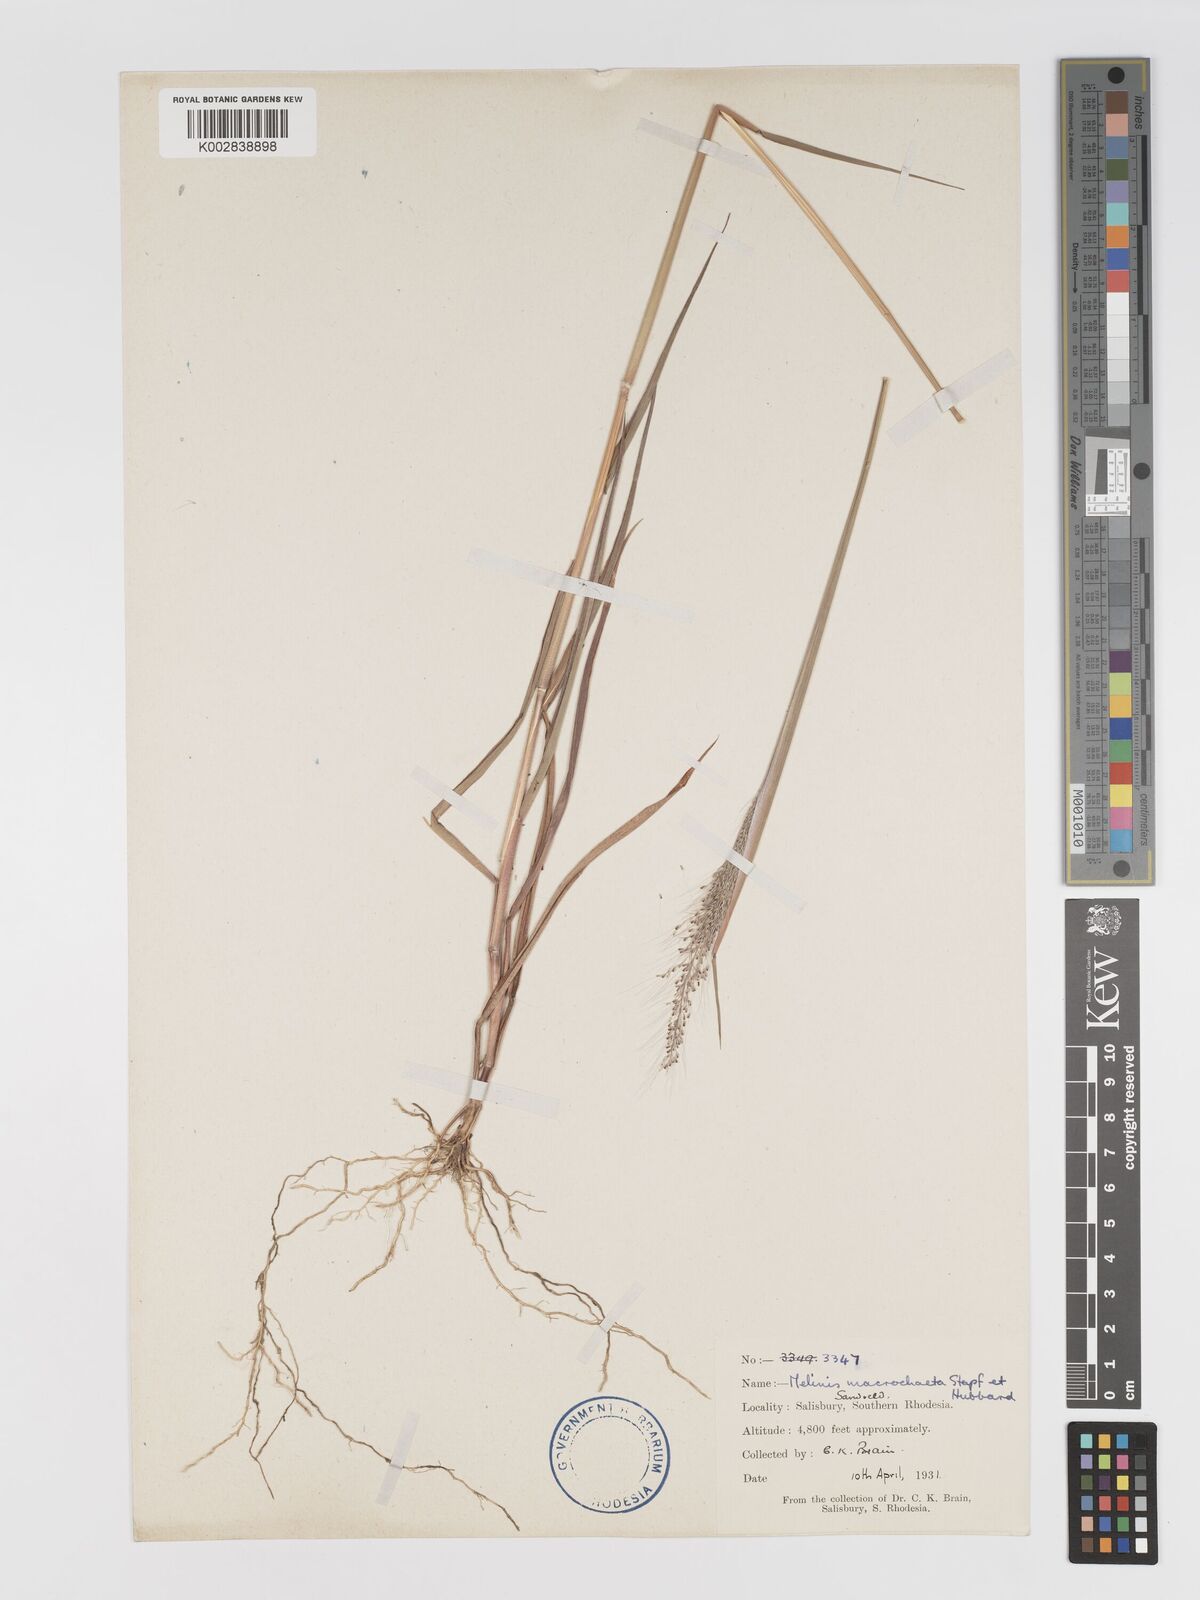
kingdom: Plantae
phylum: Tracheophyta
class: Liliopsida
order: Poales
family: Poaceae
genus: Melinis
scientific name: Melinis macrochaeta
